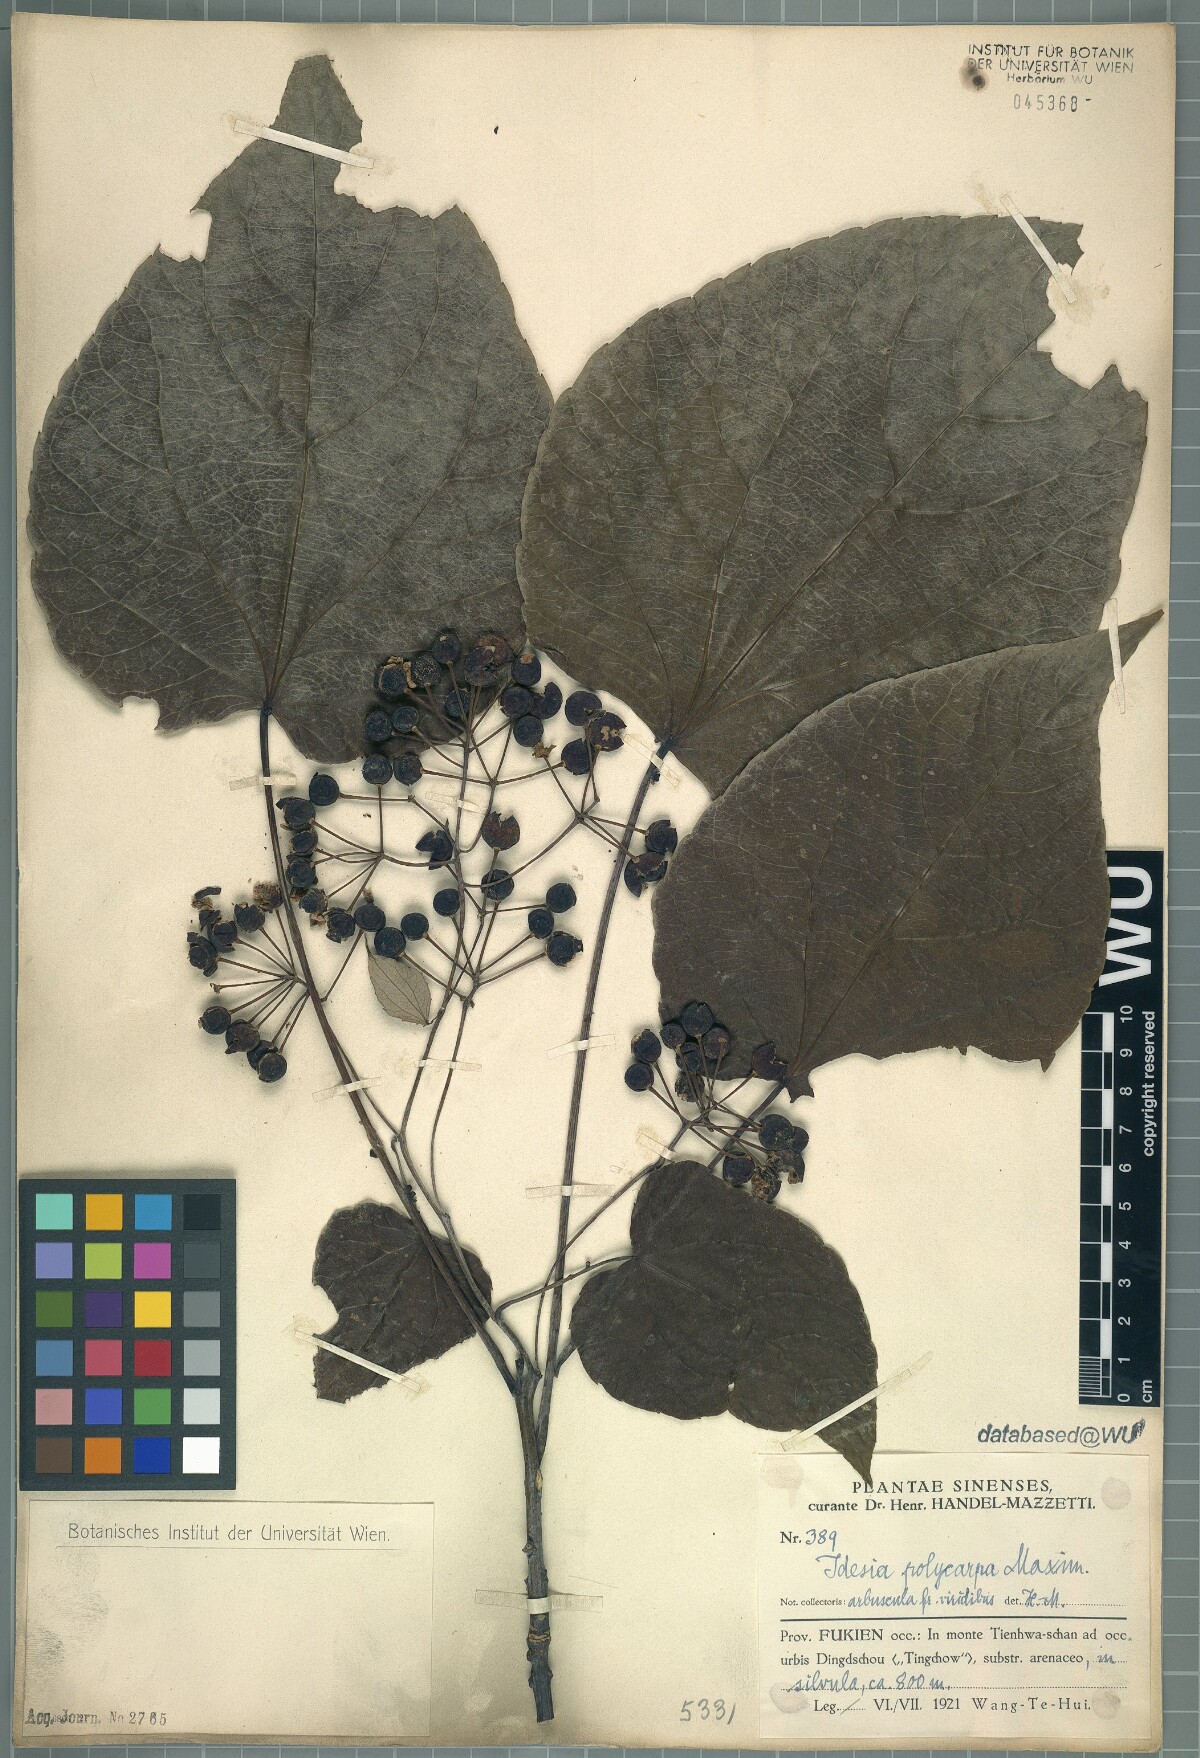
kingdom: Plantae
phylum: Tracheophyta
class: Magnoliopsida
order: Malpighiales
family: Salicaceae
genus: Idesia
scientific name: Idesia polycarpa
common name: Idesia tree
